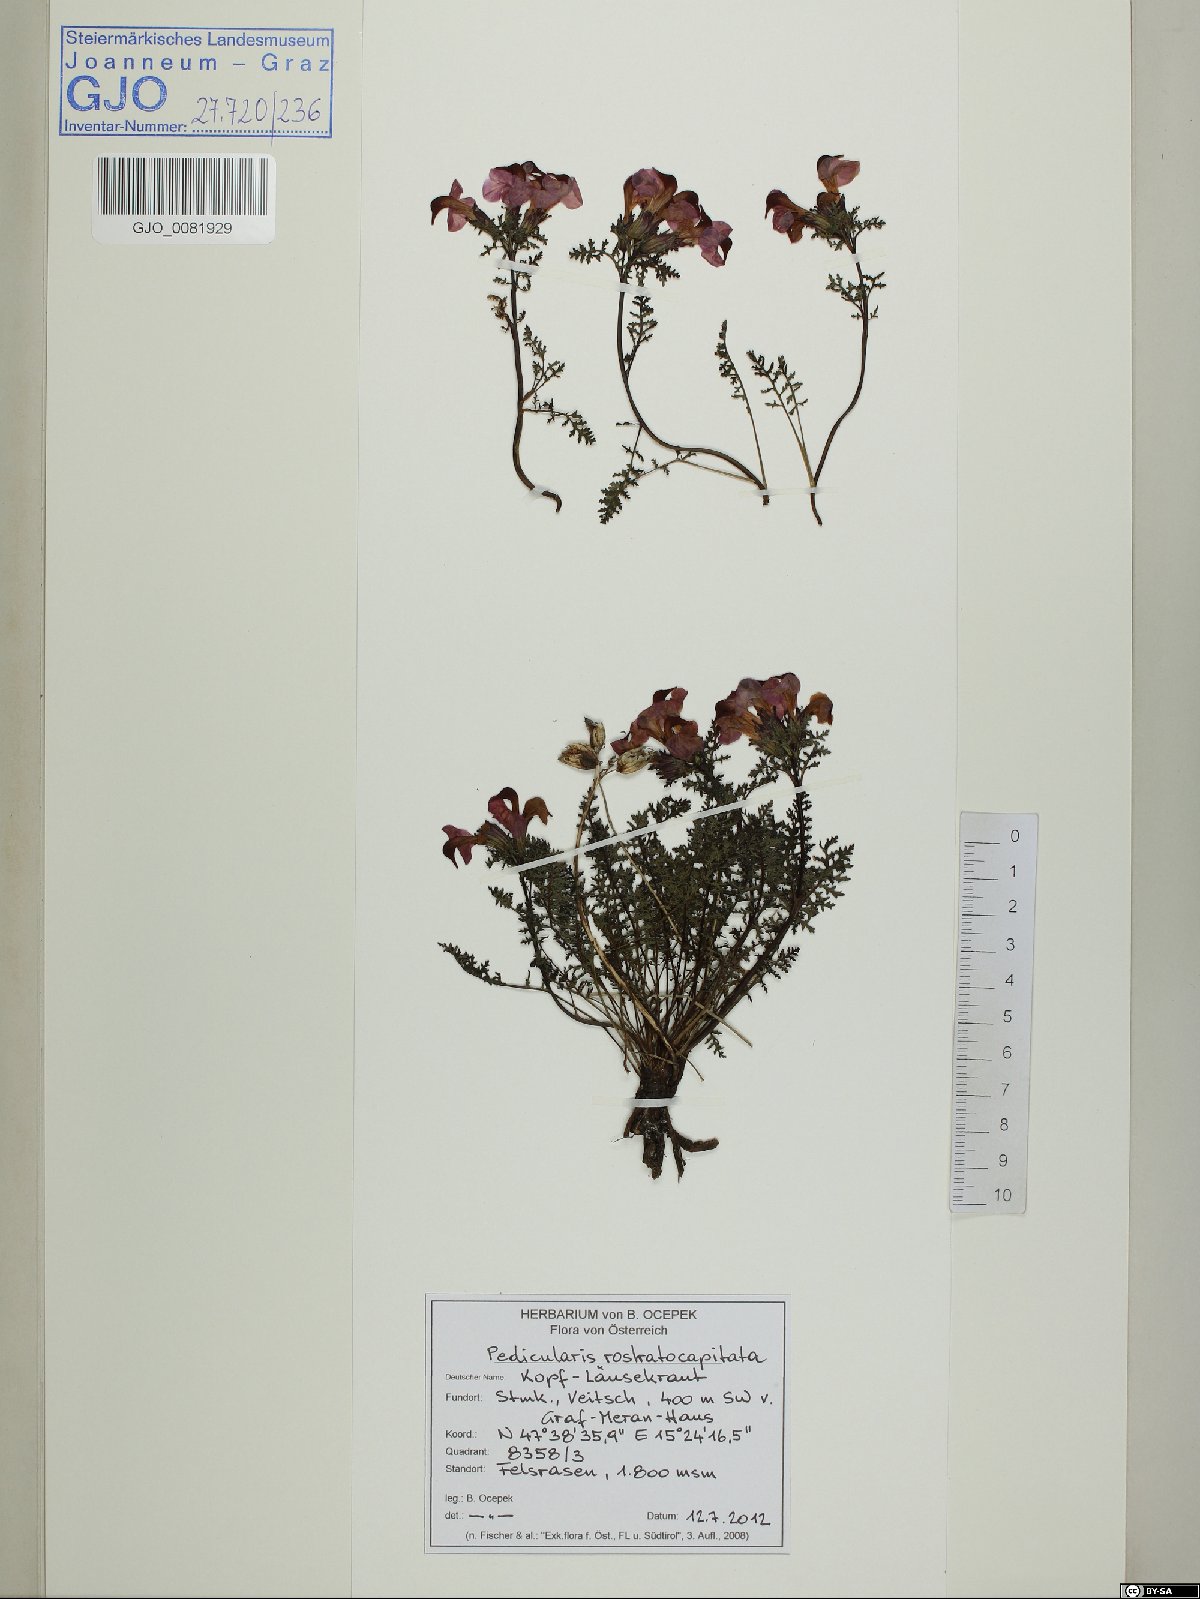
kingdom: Plantae
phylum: Tracheophyta
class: Magnoliopsida
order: Lamiales
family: Orobanchaceae
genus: Pedicularis
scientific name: Pedicularis rostratocapitata
